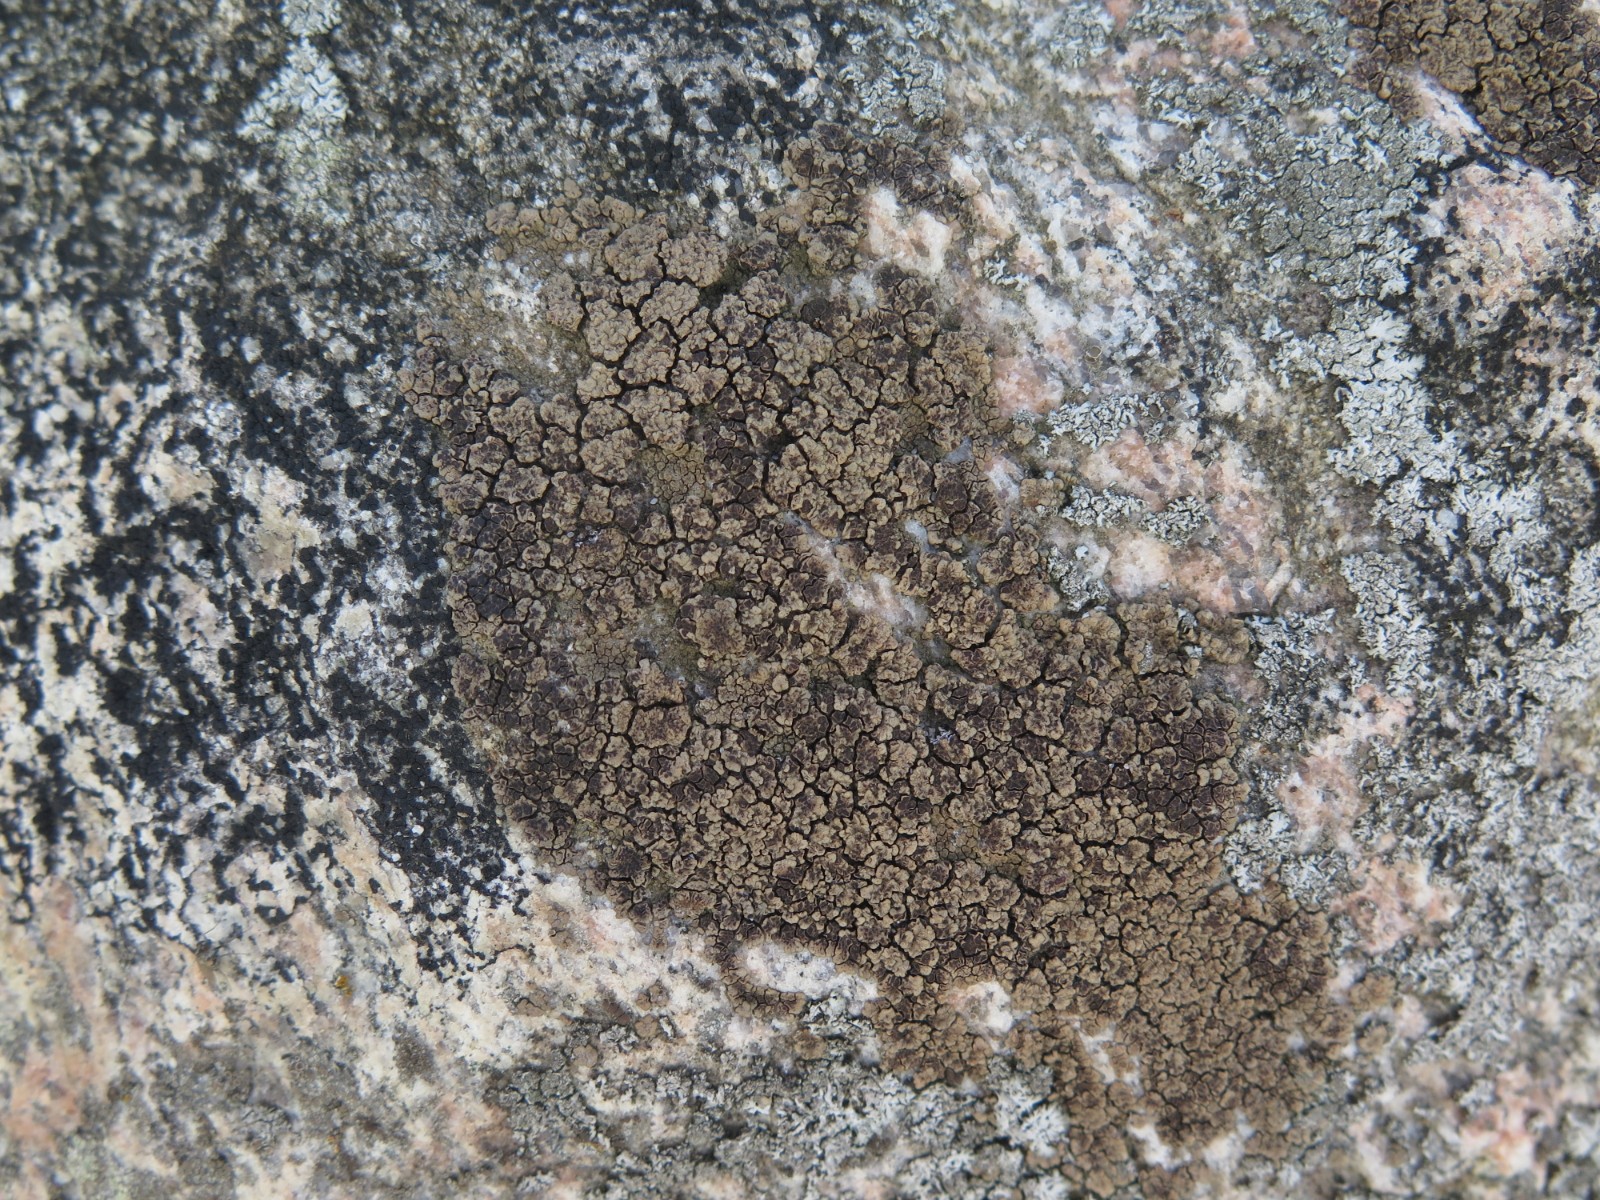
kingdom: Fungi
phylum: Ascomycota
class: Lecanoromycetes
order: Acarosporales
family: Acarosporaceae
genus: Acarospora
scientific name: Acarospora fuscata
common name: brun småsporelav
